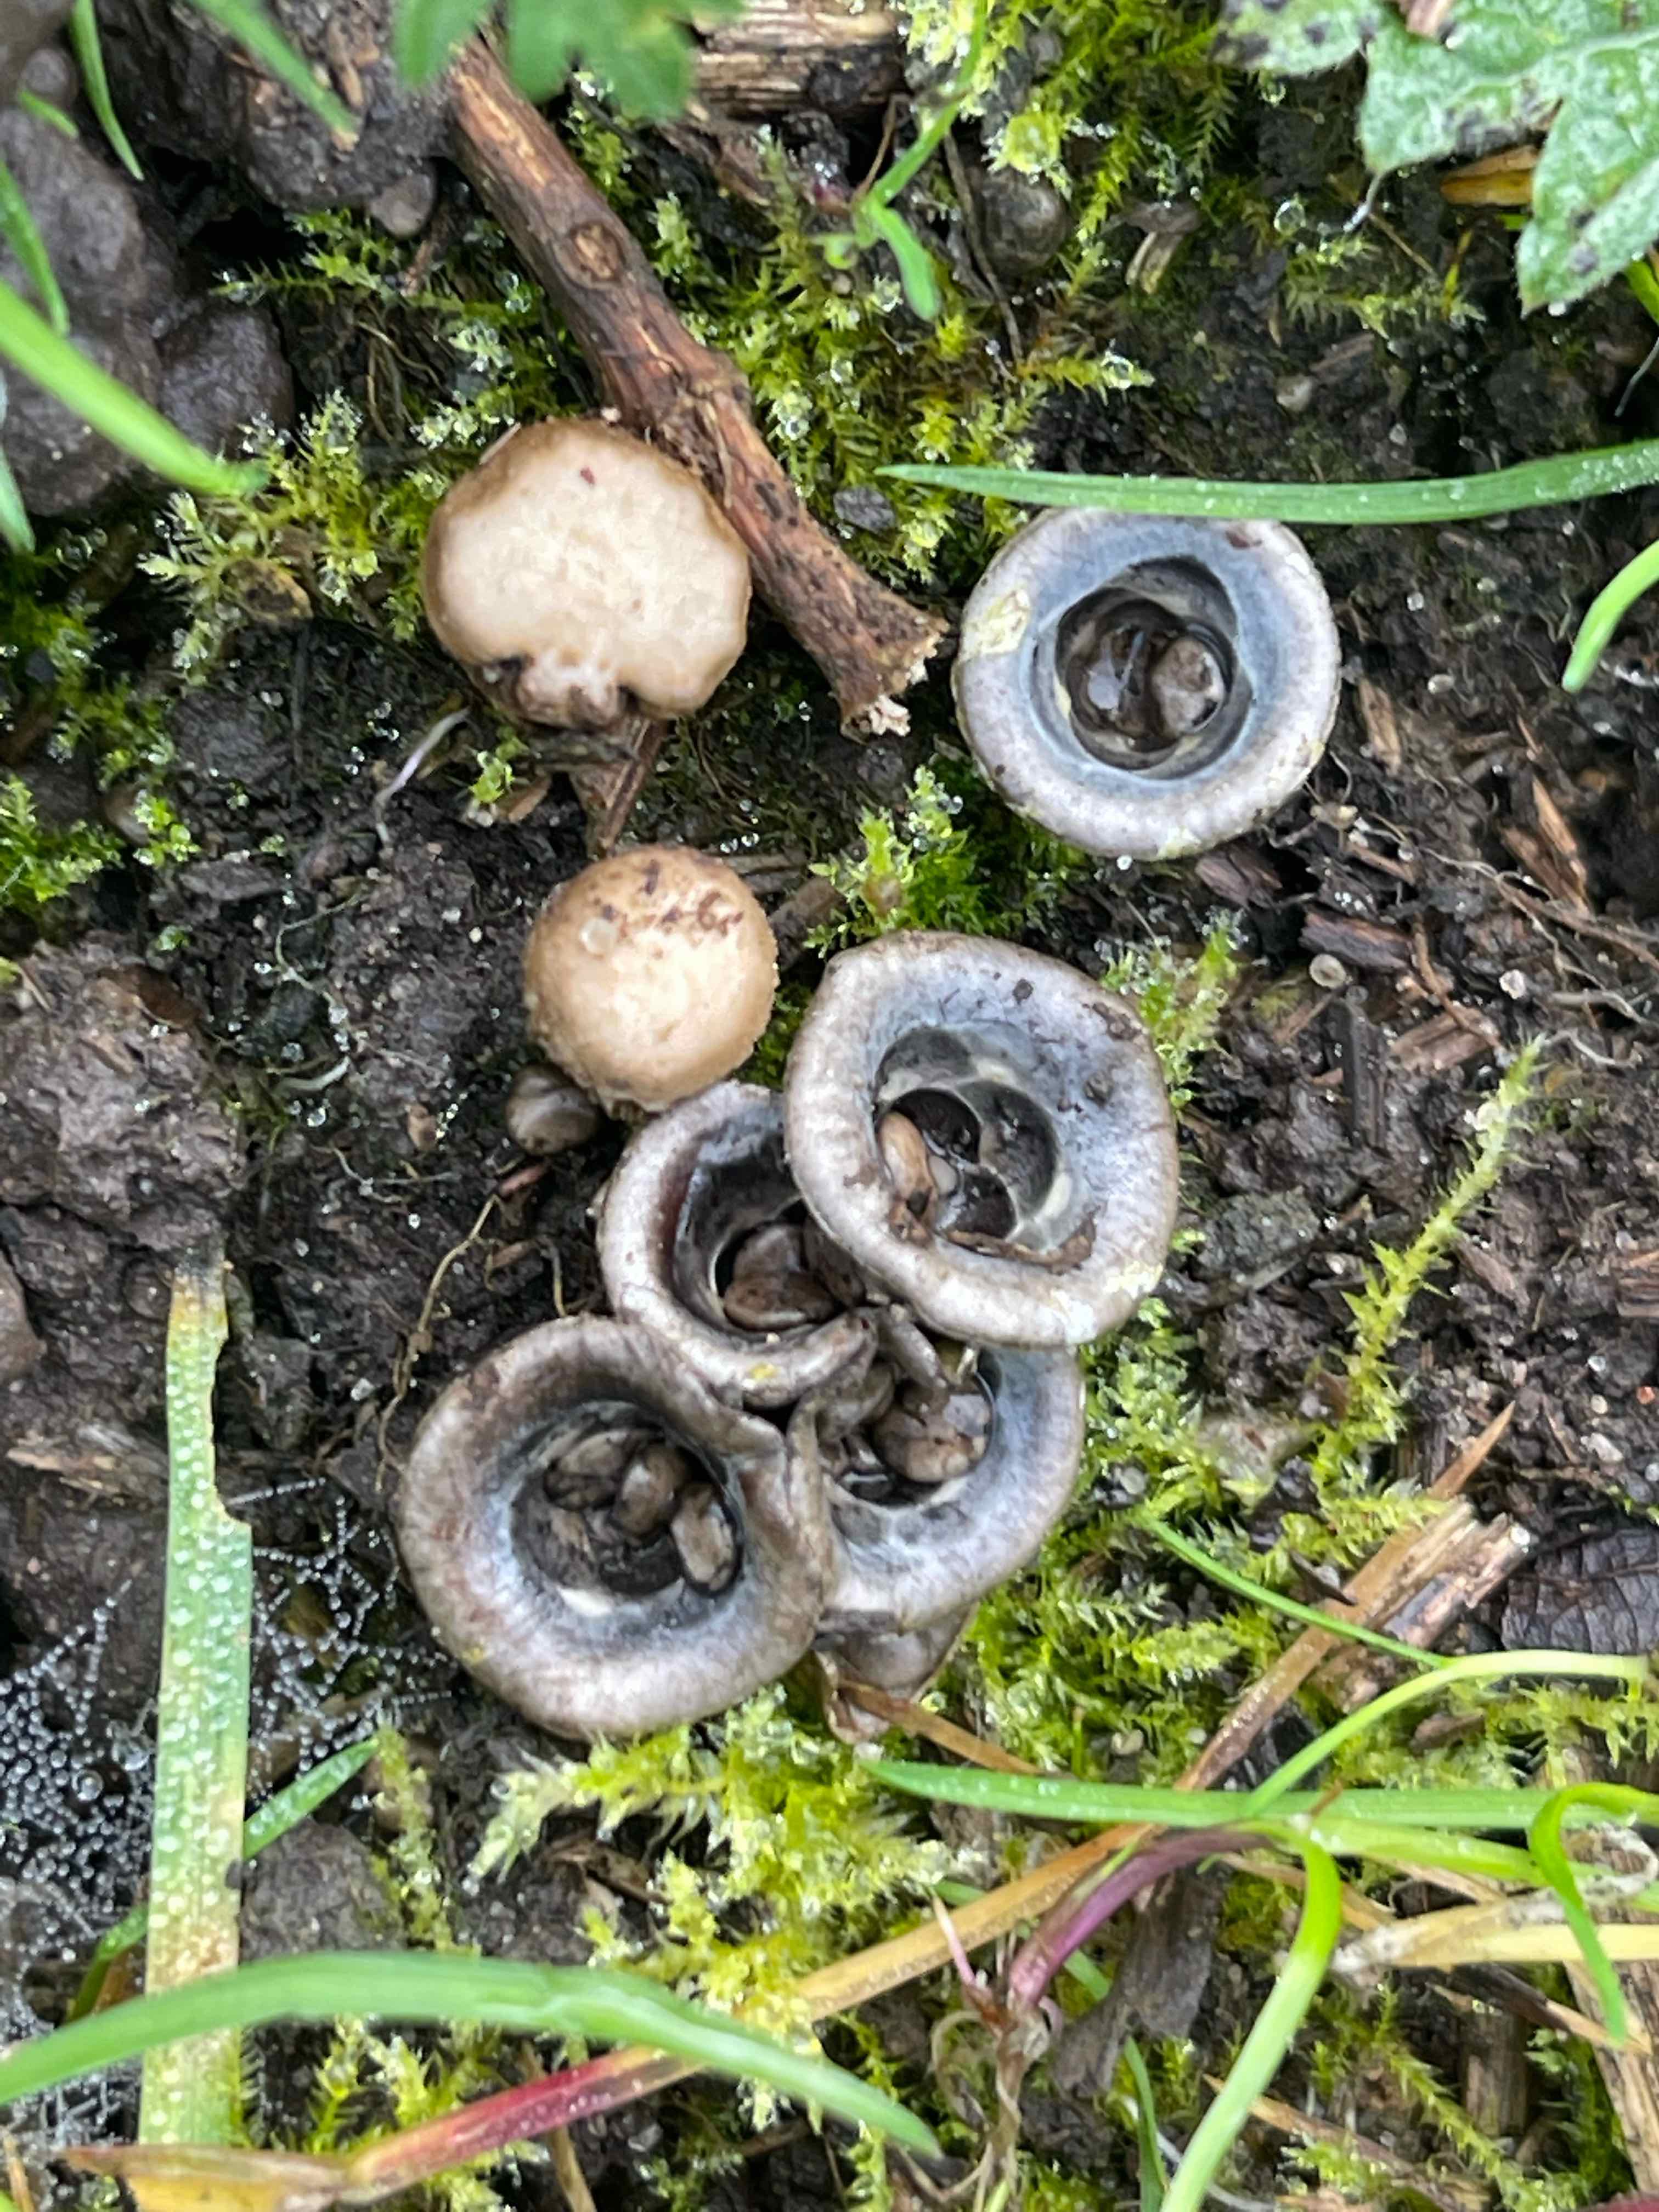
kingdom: Fungi
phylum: Basidiomycota
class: Agaricomycetes
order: Agaricales
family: Agaricaceae
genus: Cyathus
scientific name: Cyathus olla
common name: klokke-redesvamp
